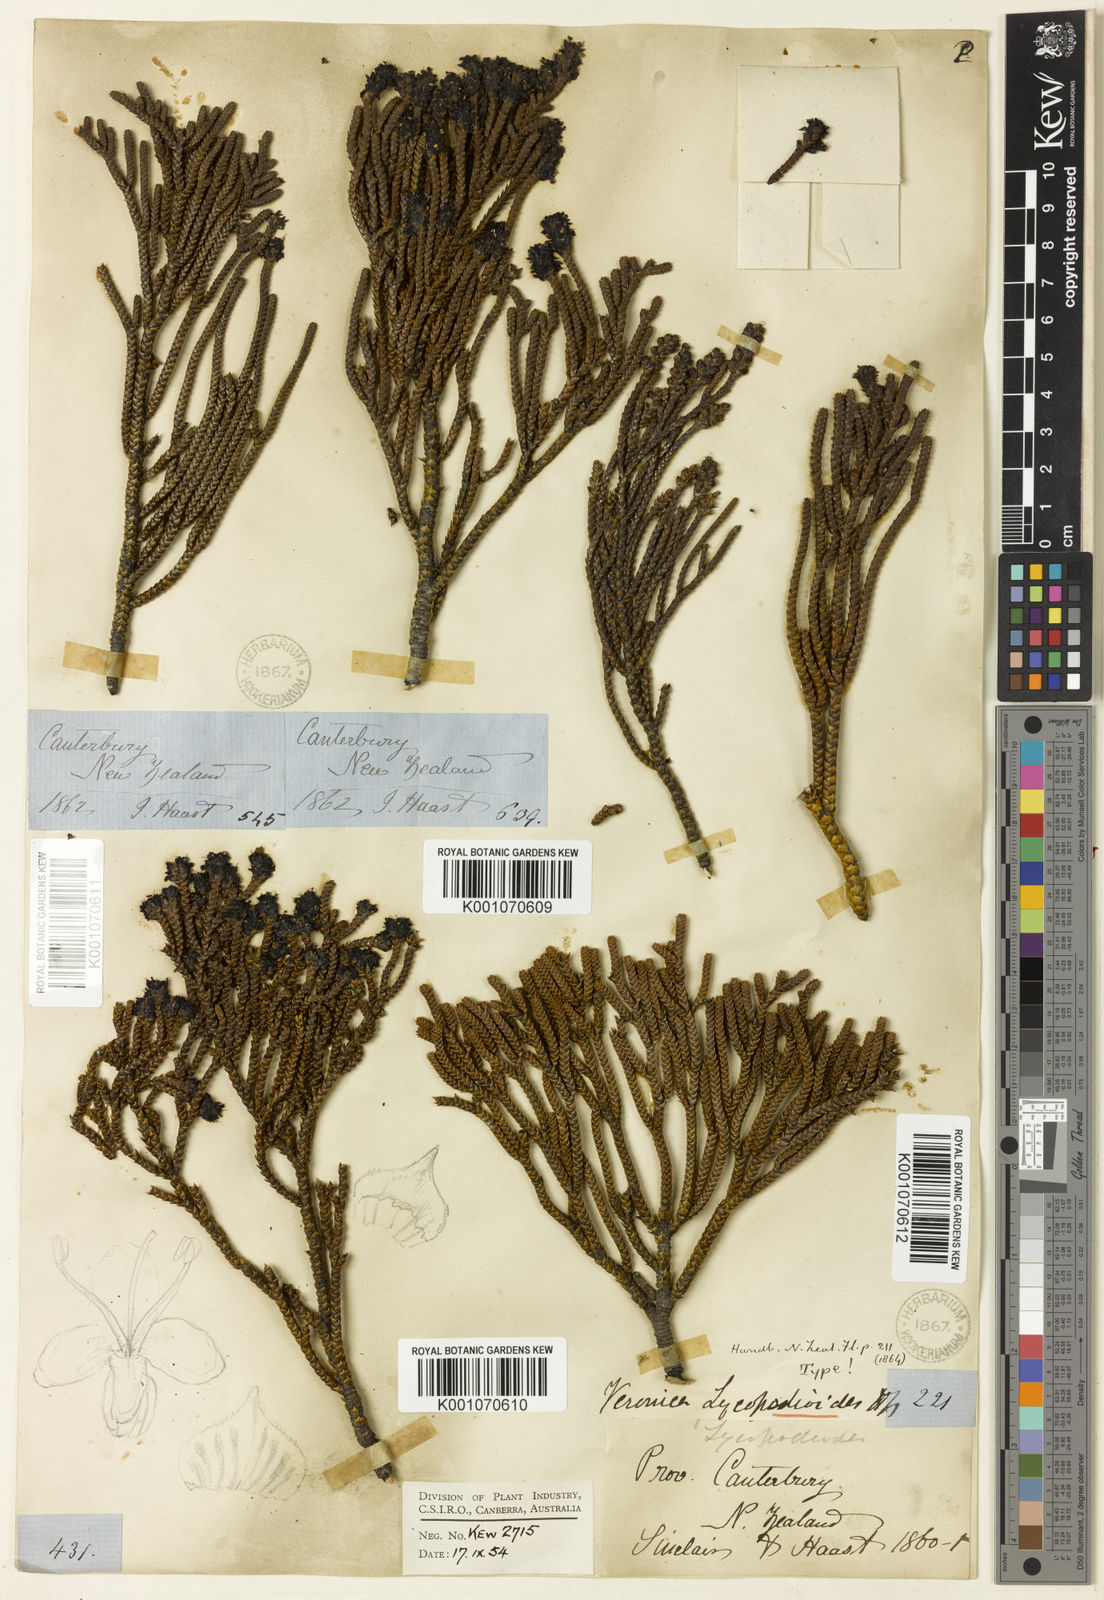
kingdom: Plantae
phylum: Tracheophyta
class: Magnoliopsida
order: Lamiales
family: Plantaginaceae
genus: Veronica
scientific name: Veronica lycopodioides
